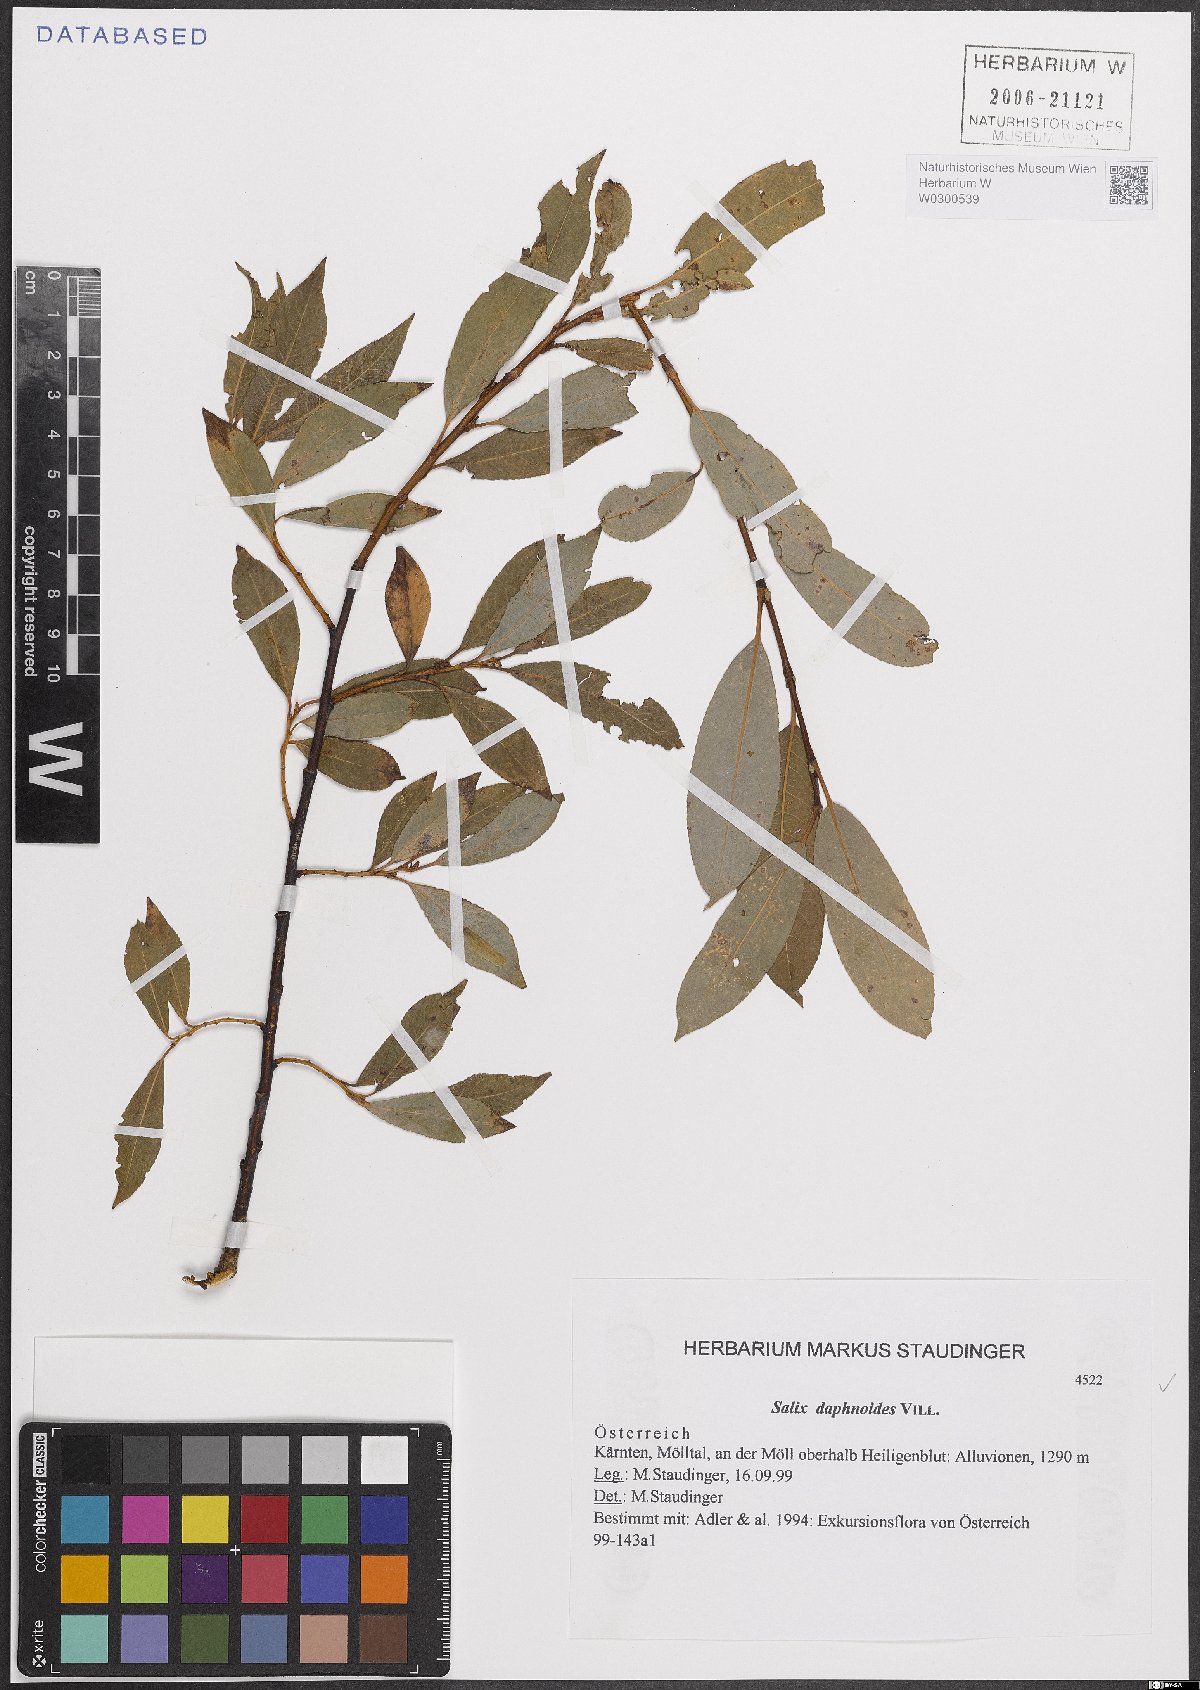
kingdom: Plantae
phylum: Tracheophyta
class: Magnoliopsida
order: Malpighiales
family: Salicaceae
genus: Salix
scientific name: Salix daphnoides
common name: European violet-willow
